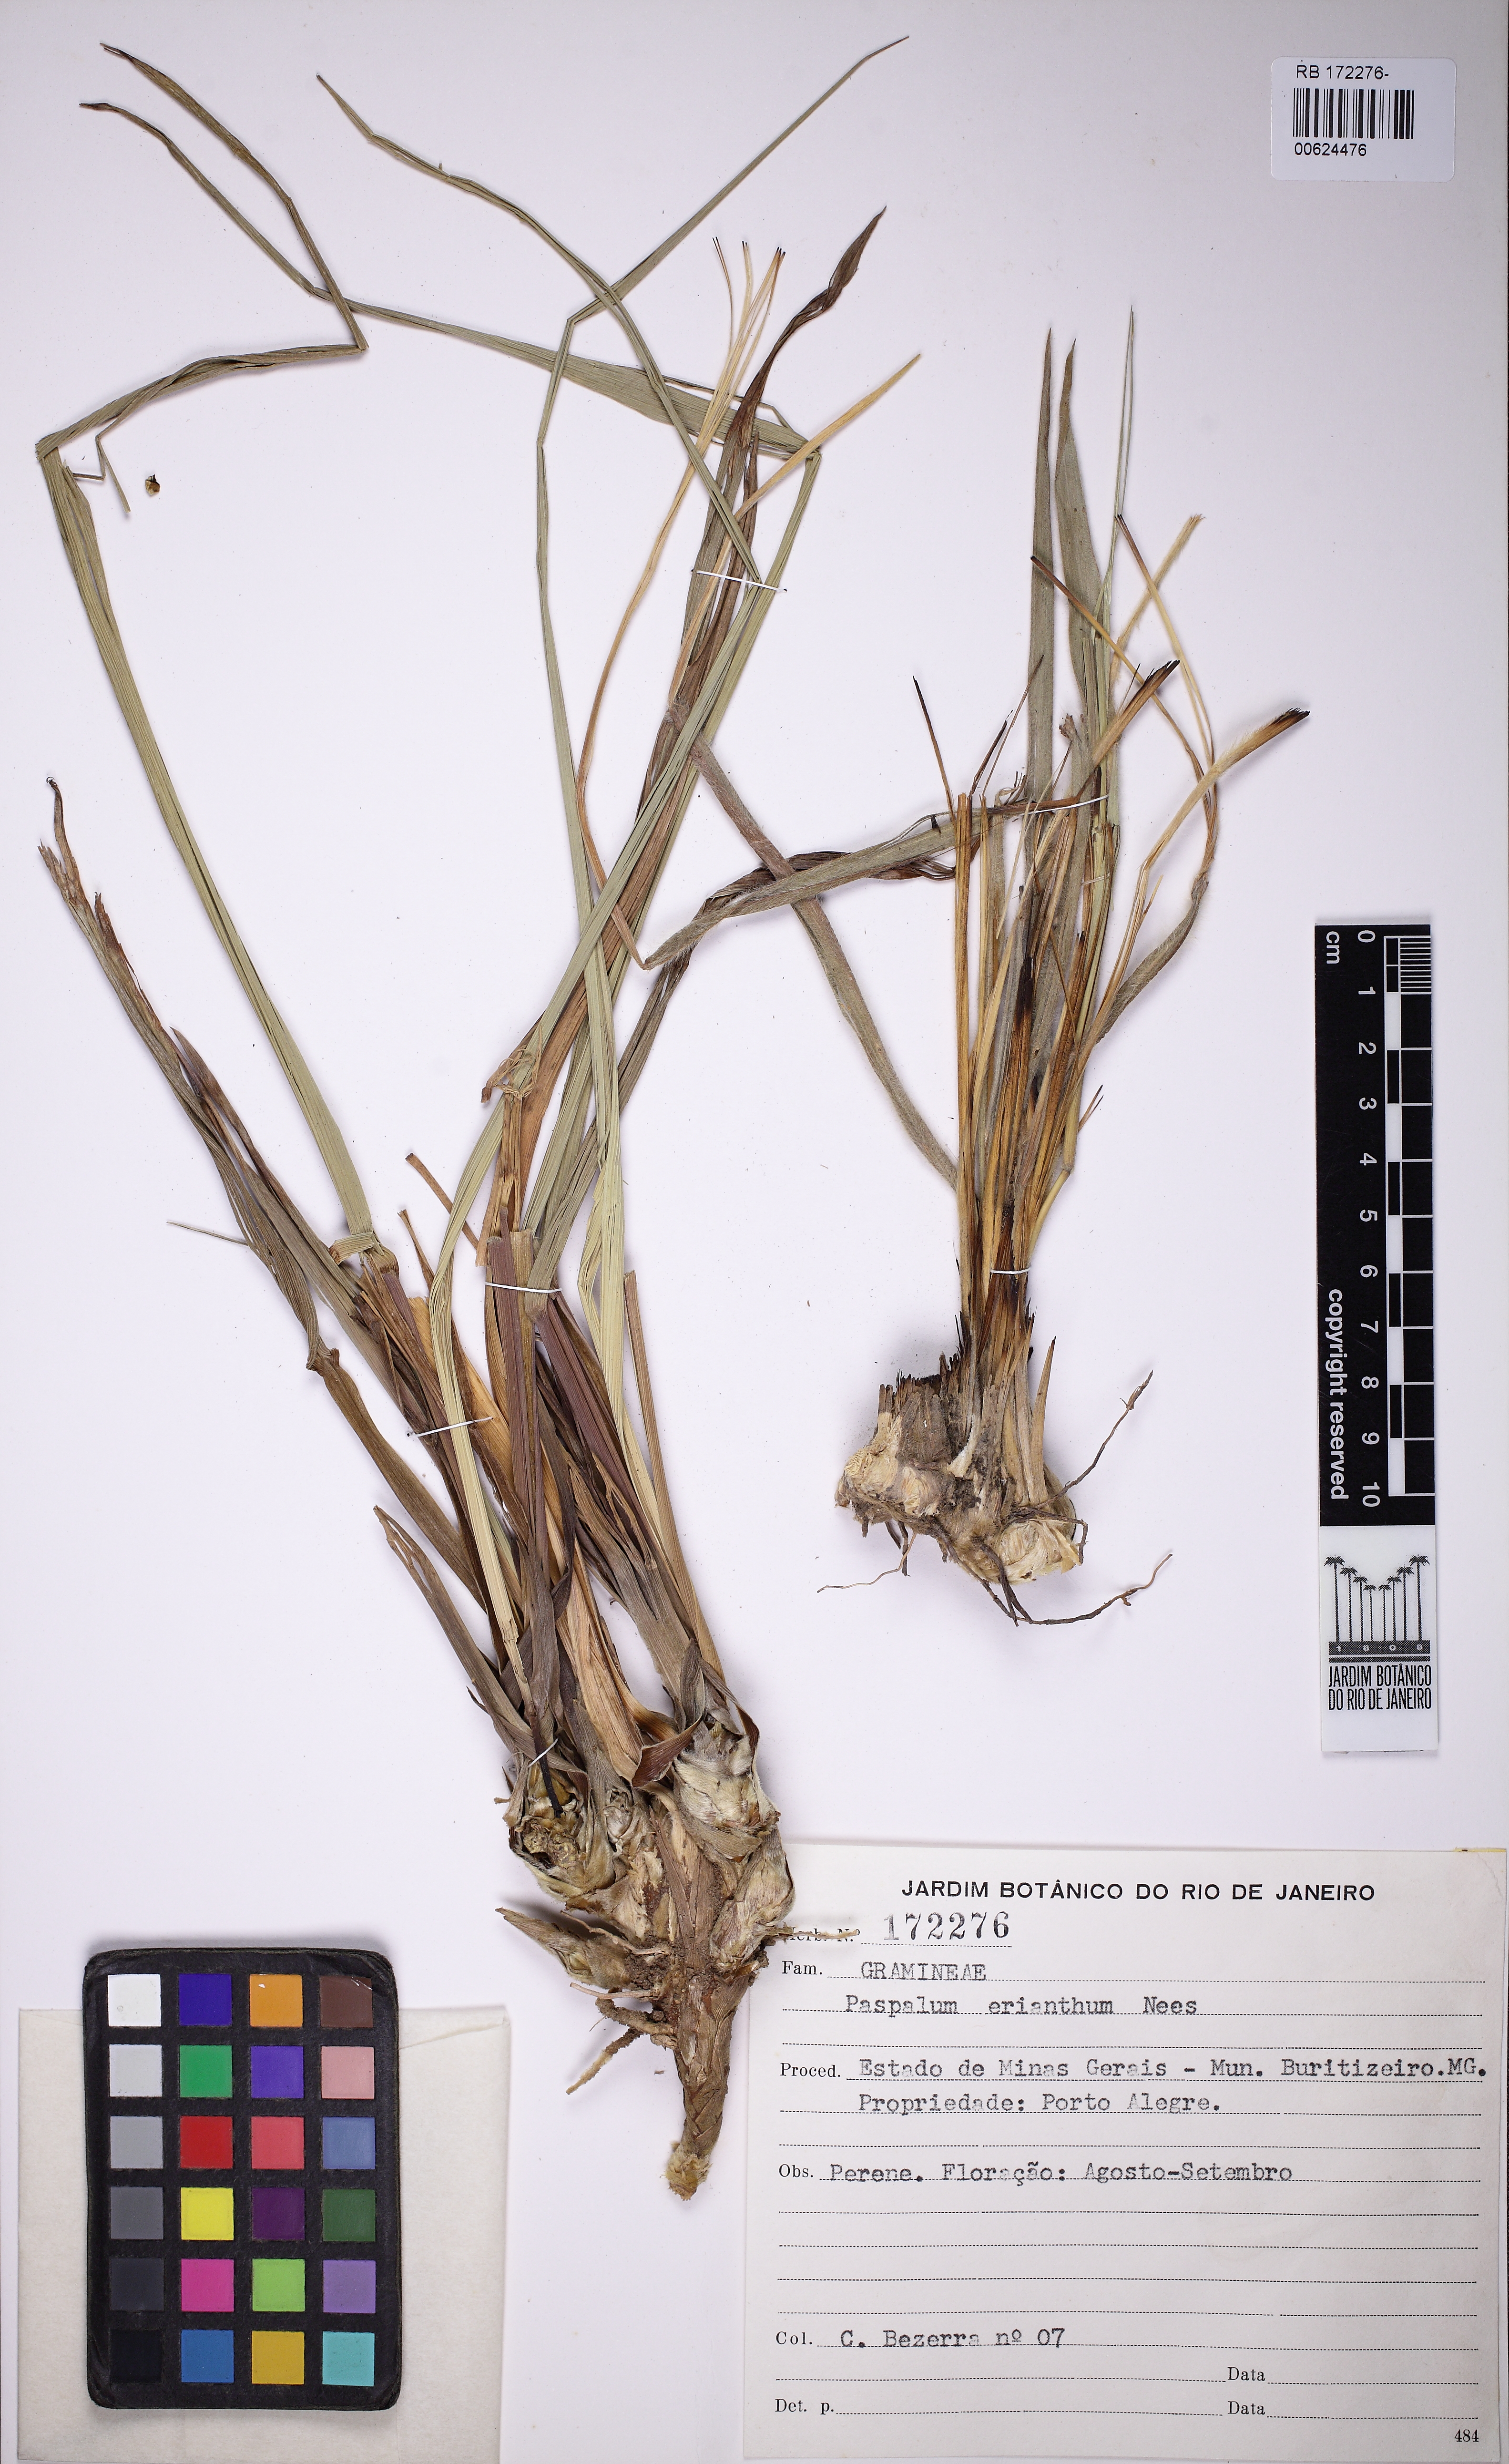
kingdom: Plantae
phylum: Tracheophyta
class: Liliopsida
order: Poales
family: Poaceae
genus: Paspalum
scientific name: Paspalum erianthum
